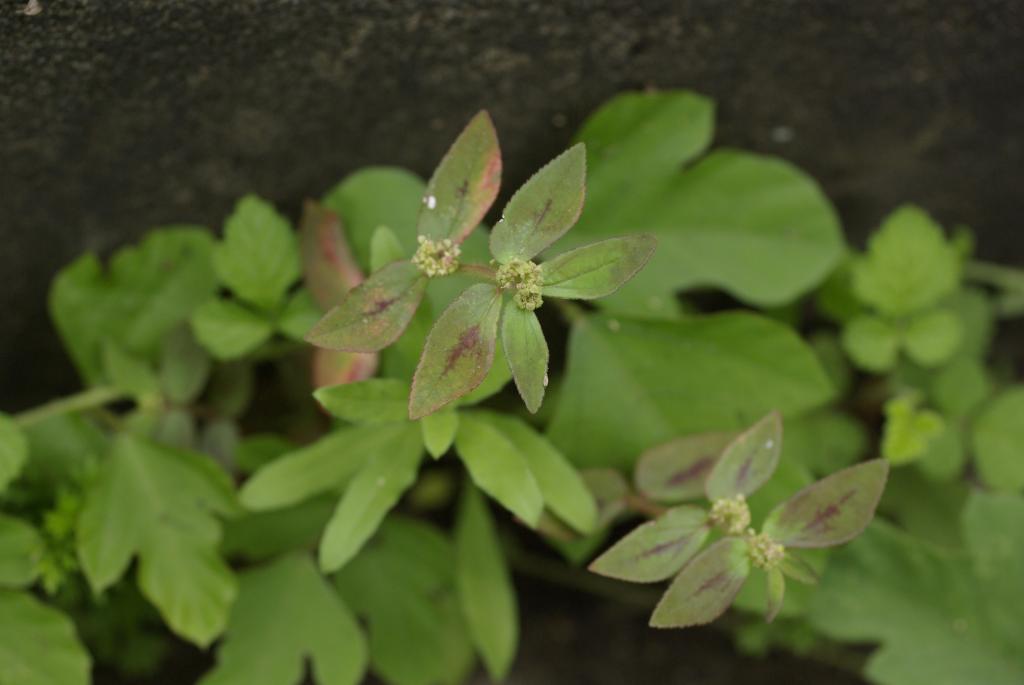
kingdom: Plantae
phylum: Tracheophyta
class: Magnoliopsida
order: Malpighiales
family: Euphorbiaceae
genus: Euphorbia
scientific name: Euphorbia hirta
